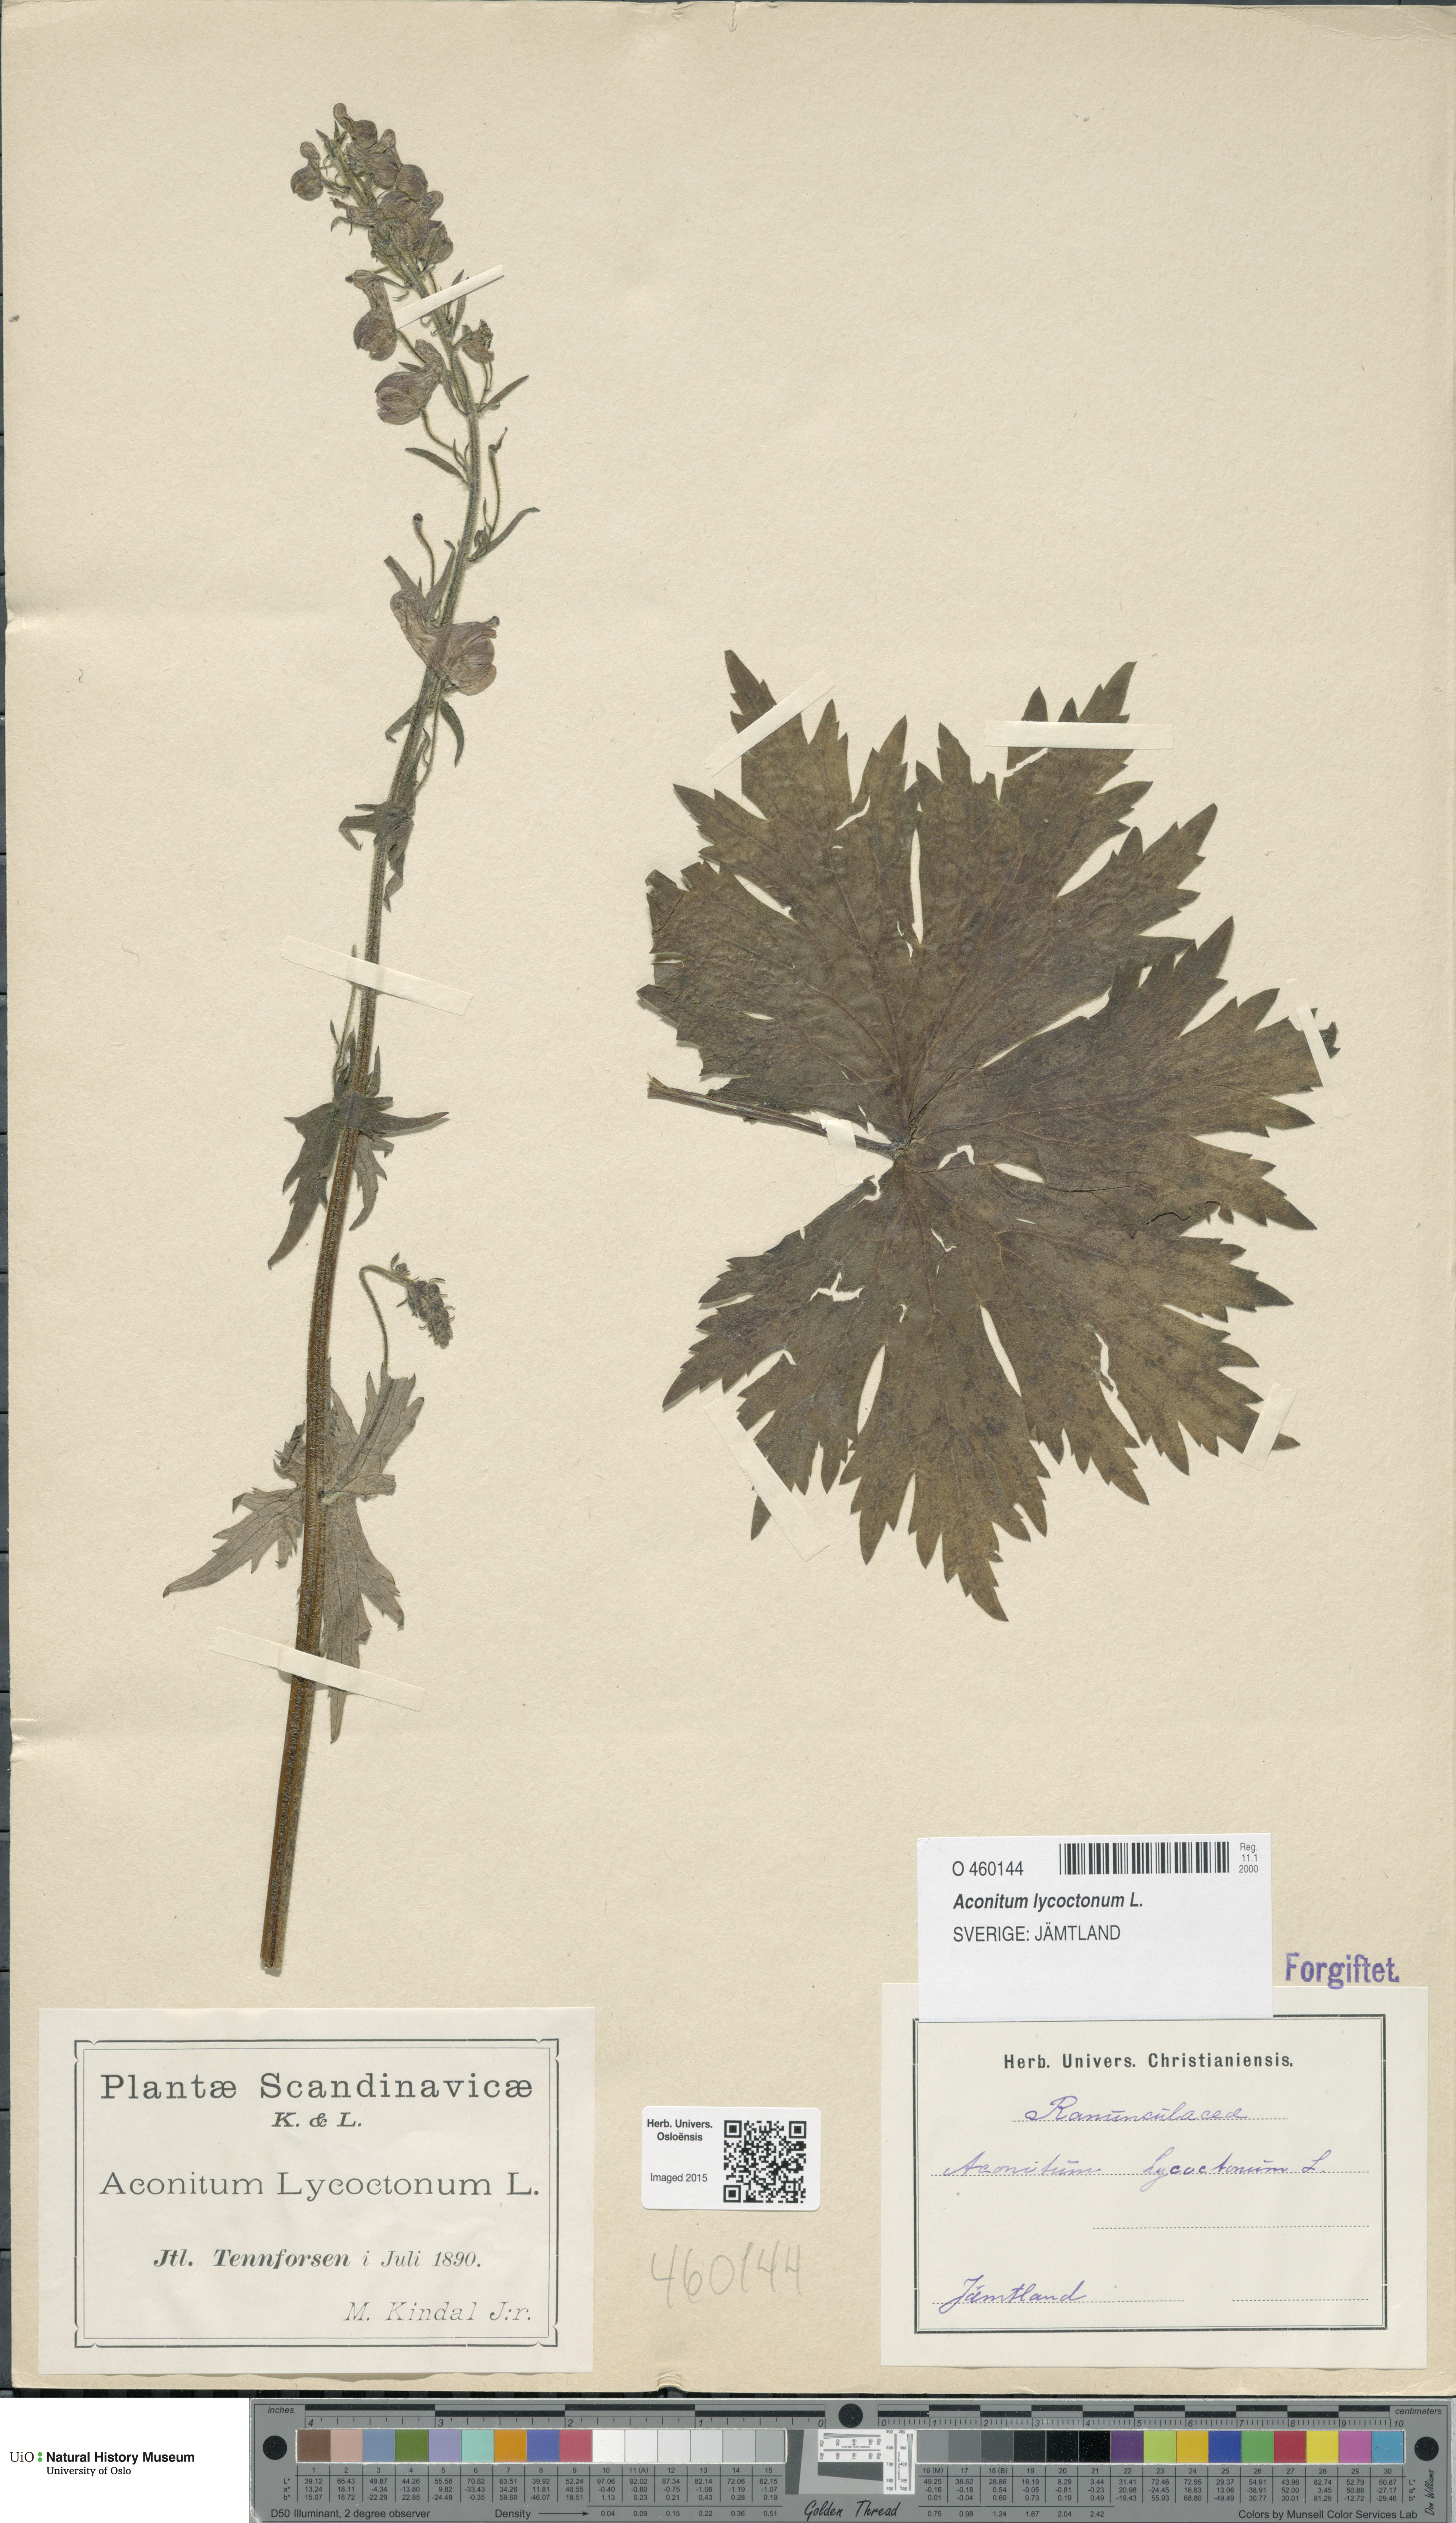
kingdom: Plantae
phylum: Tracheophyta
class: Magnoliopsida
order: Ranunculales
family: Ranunculaceae
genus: Aconitum
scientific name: Aconitum septentrionale
